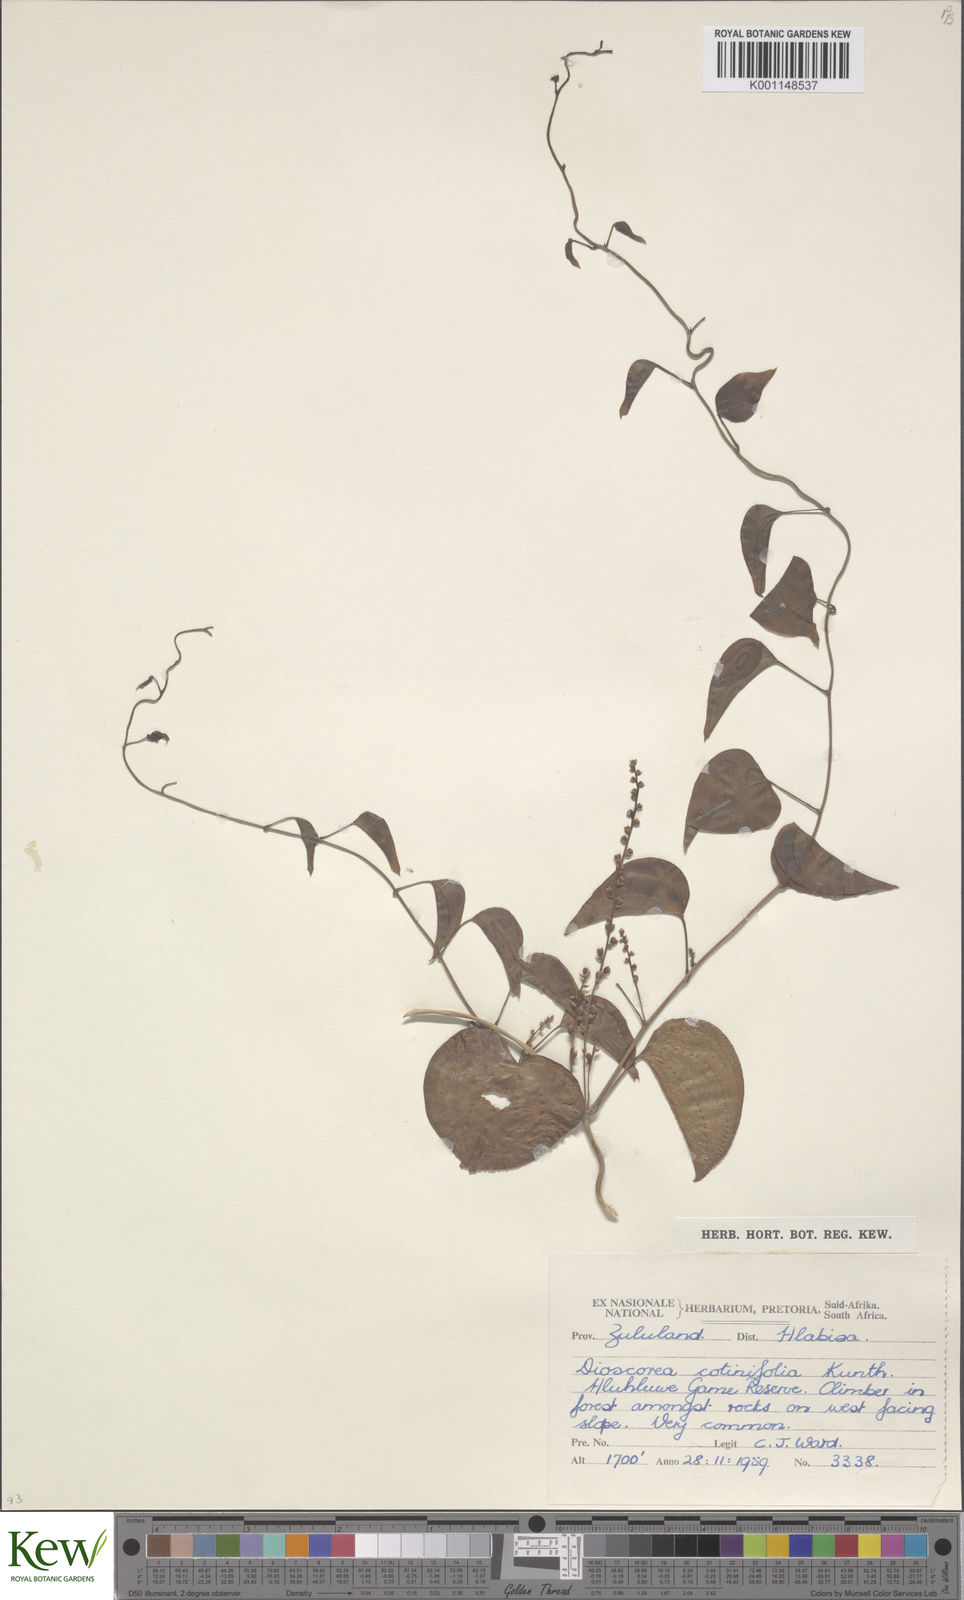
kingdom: Plantae
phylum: Tracheophyta
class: Liliopsida
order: Dioscoreales
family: Dioscoreaceae
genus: Dioscorea
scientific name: Dioscorea cotinifolia
